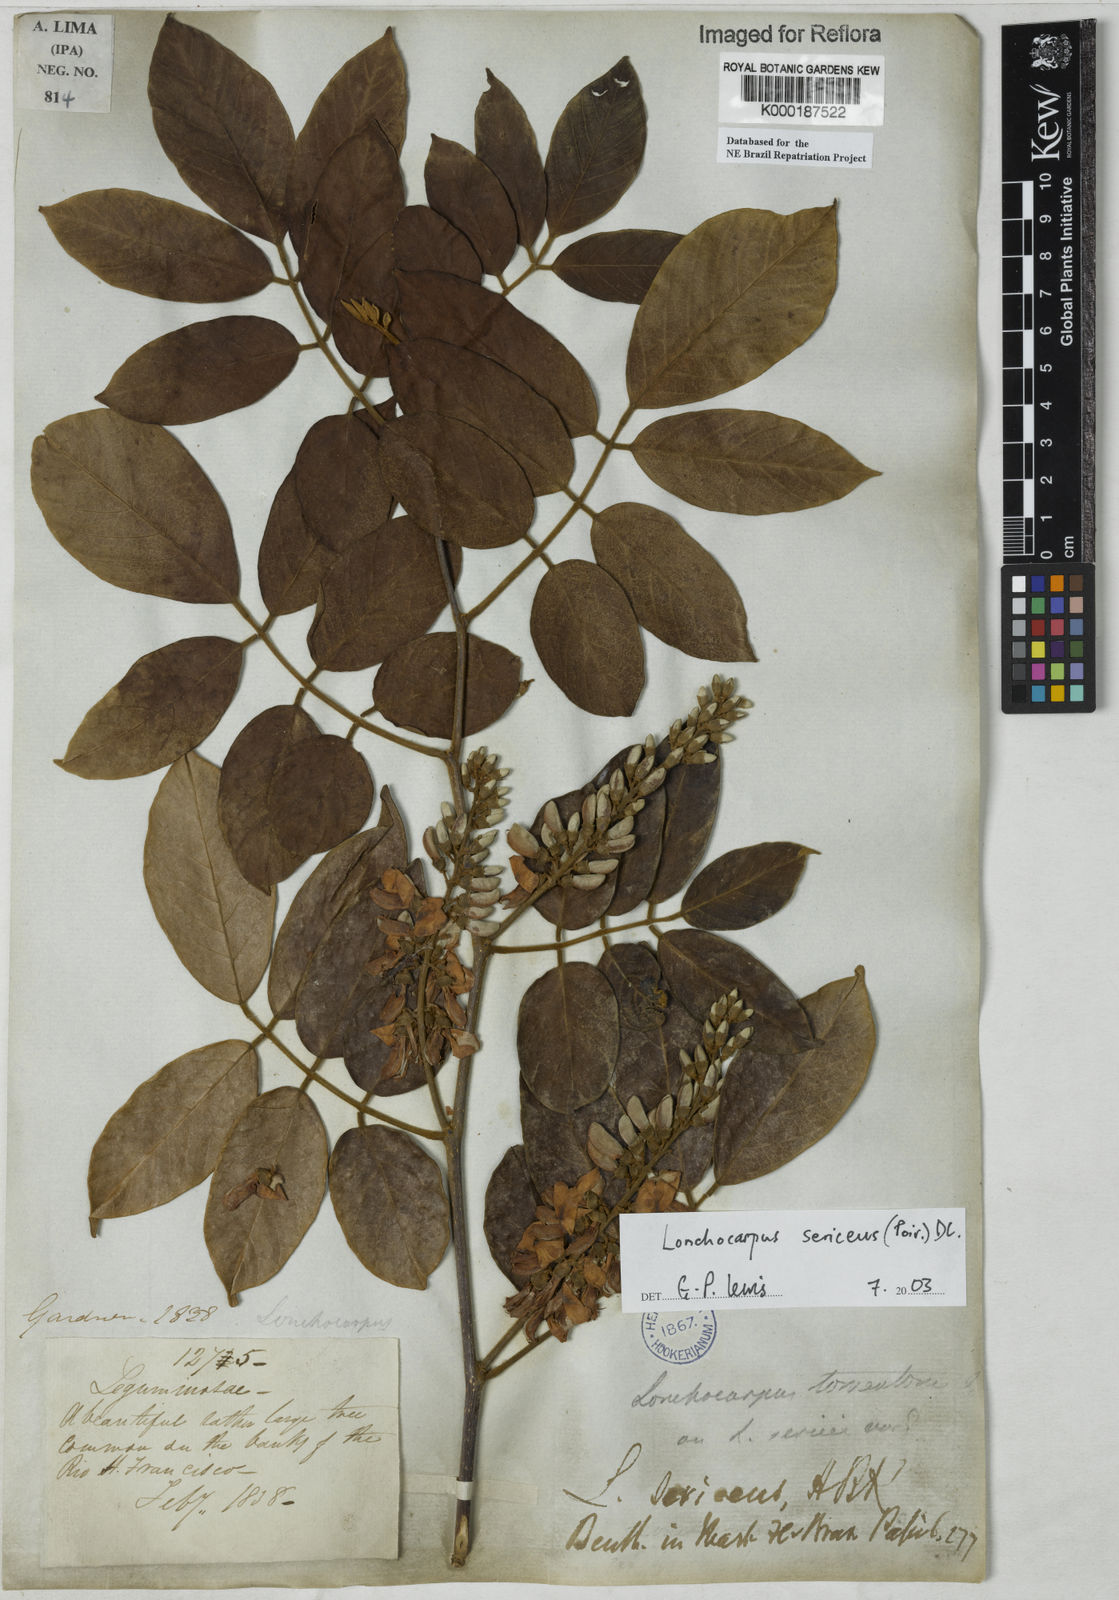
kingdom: Plantae
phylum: Tracheophyta
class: Magnoliopsida
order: Fabales
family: Fabaceae
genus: Lonchocarpus
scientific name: Lonchocarpus sericeus
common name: Savonette
